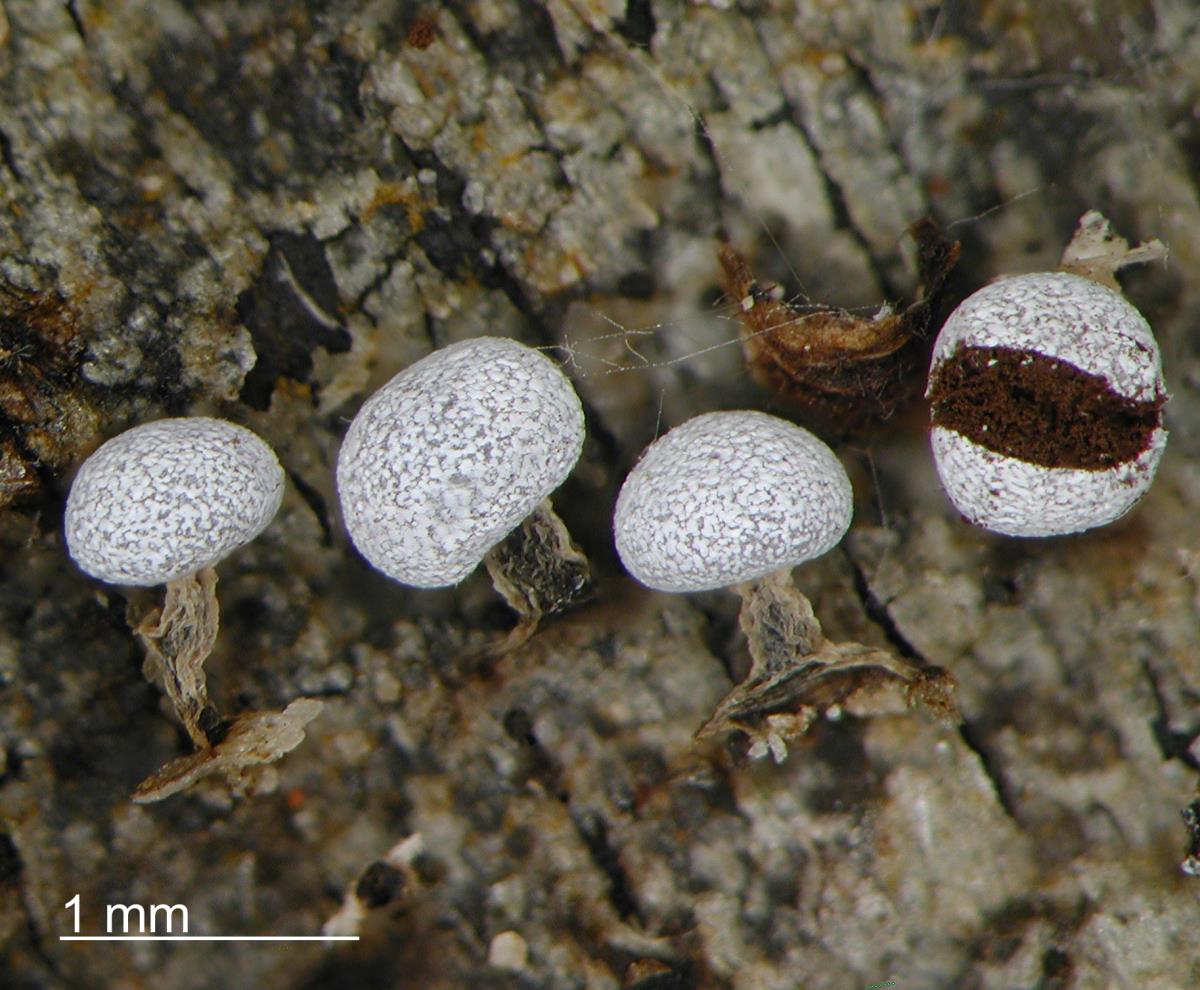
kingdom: Protozoa
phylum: Mycetozoa
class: Myxomycetes
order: Physarales
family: Physaraceae
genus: Physarum
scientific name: Physarum leucophaeum
